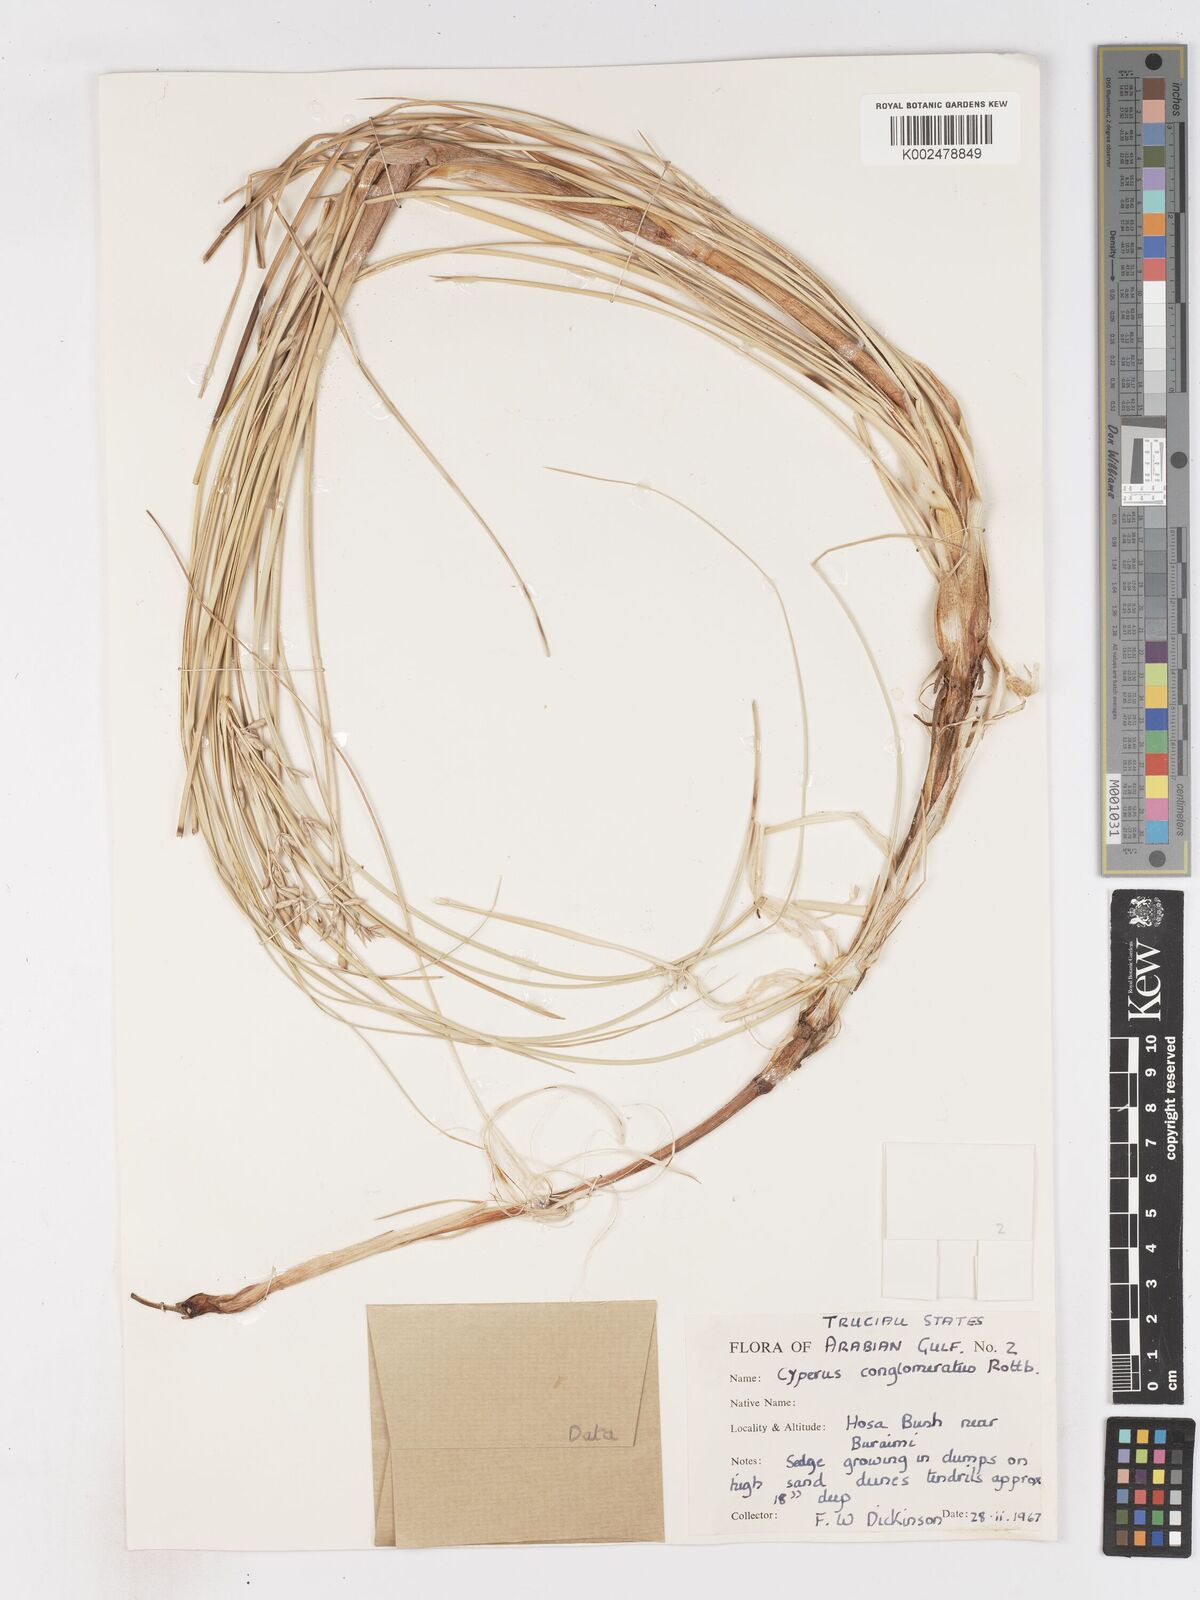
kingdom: Plantae
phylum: Tracheophyta
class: Liliopsida
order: Poales
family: Cyperaceae
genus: Cyperus
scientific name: Cyperus aucheri
